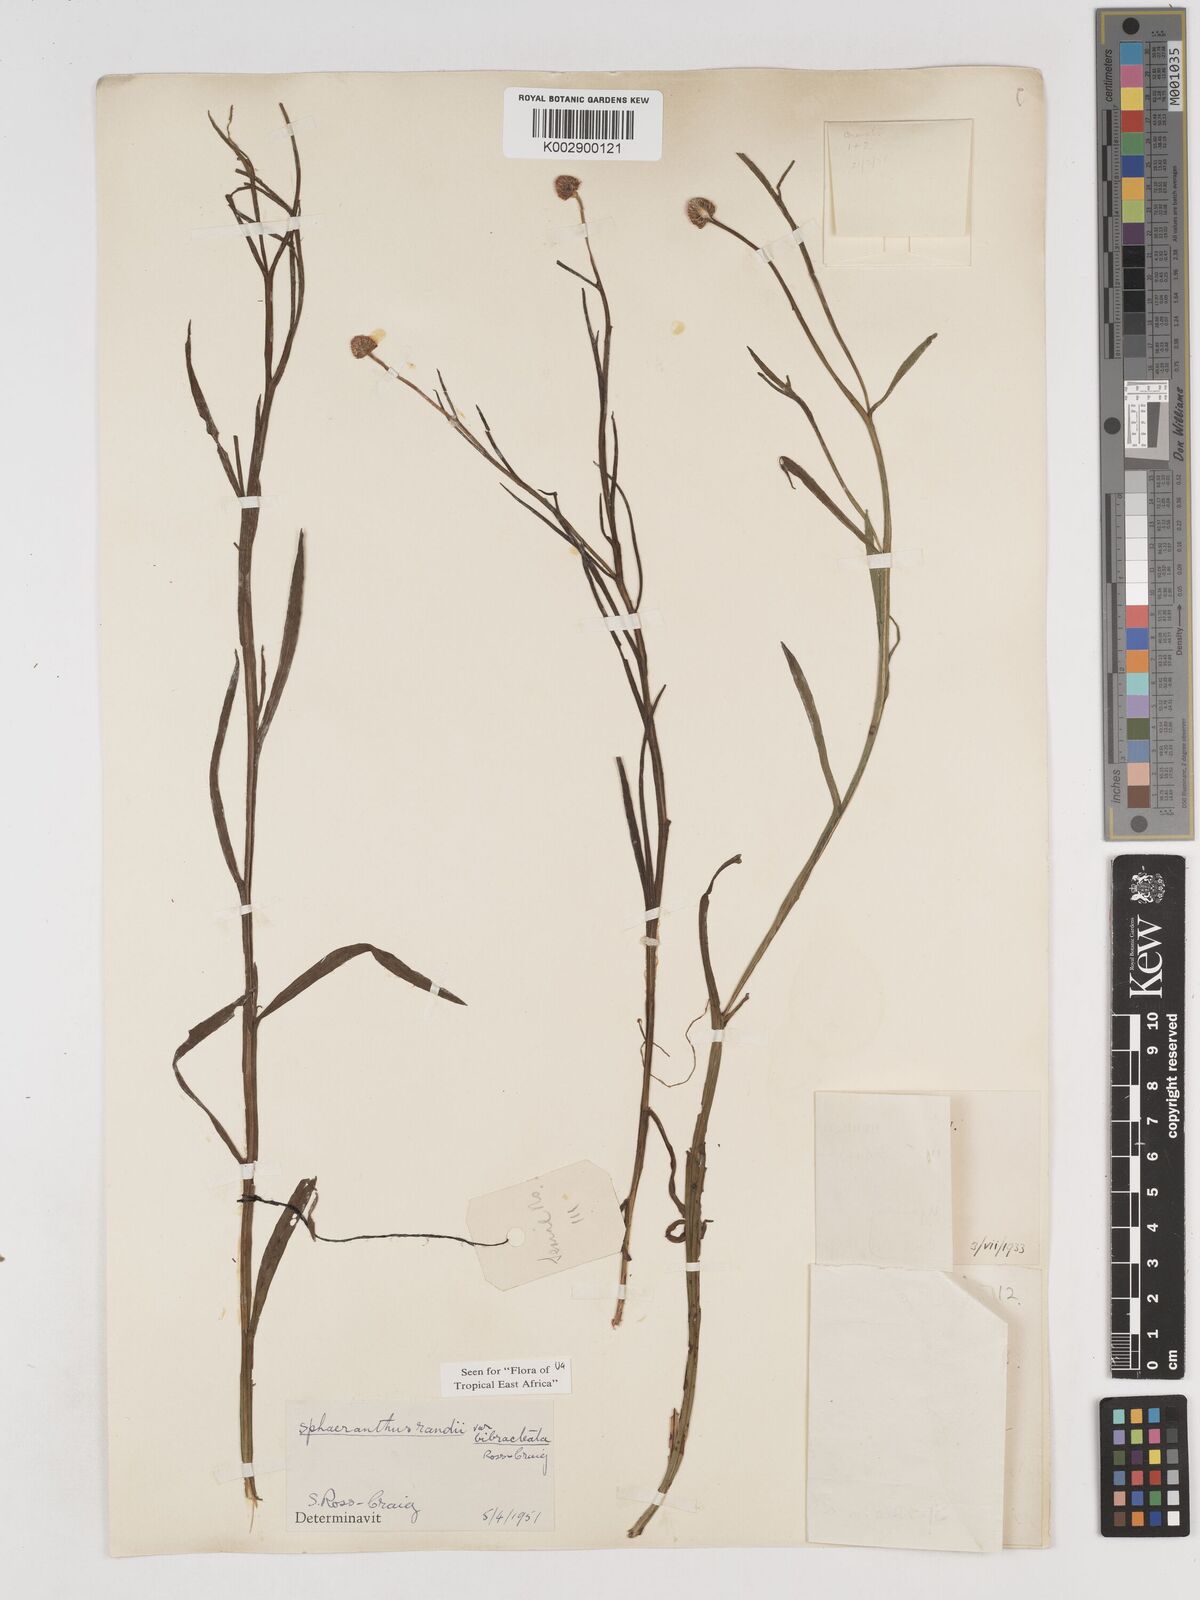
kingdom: Plantae
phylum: Tracheophyta
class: Magnoliopsida
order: Asterales
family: Asteraceae
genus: Sphaeranthus
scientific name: Sphaeranthus randii
